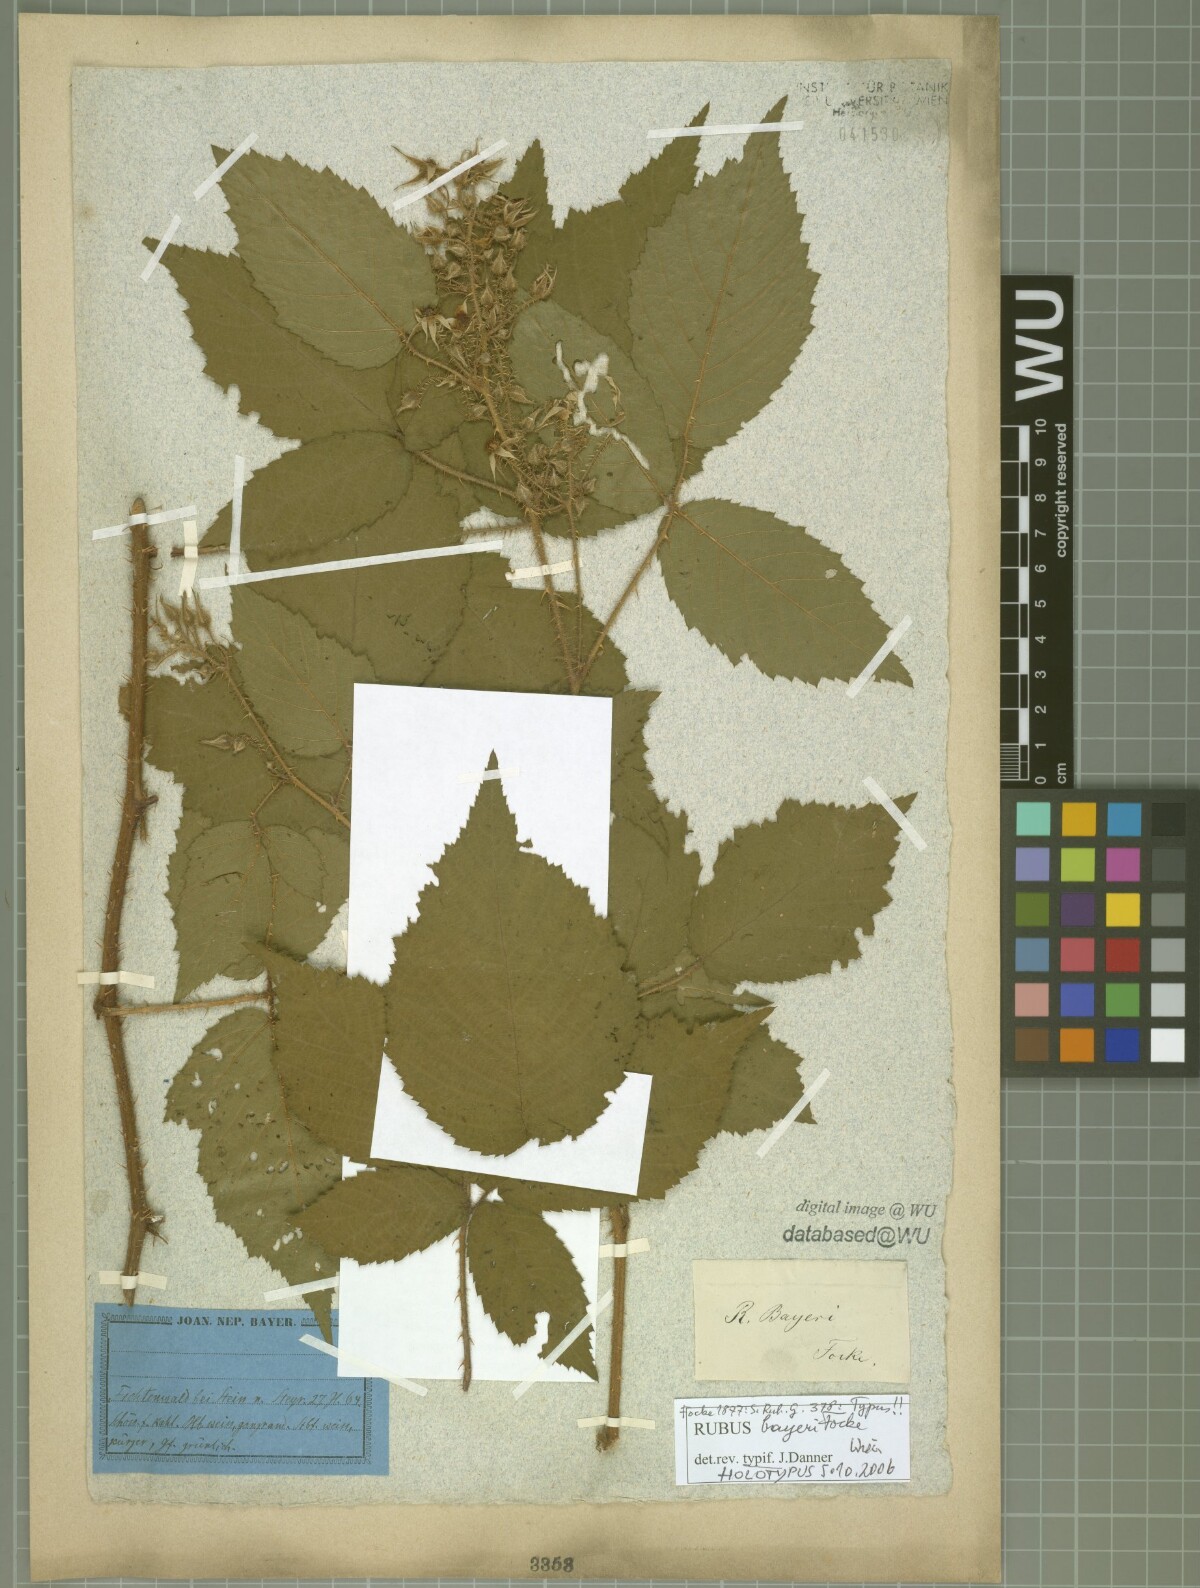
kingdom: Plantae
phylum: Tracheophyta
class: Magnoliopsida
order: Rosales
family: Rosaceae
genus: Rubus
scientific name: Rubus rivularis
